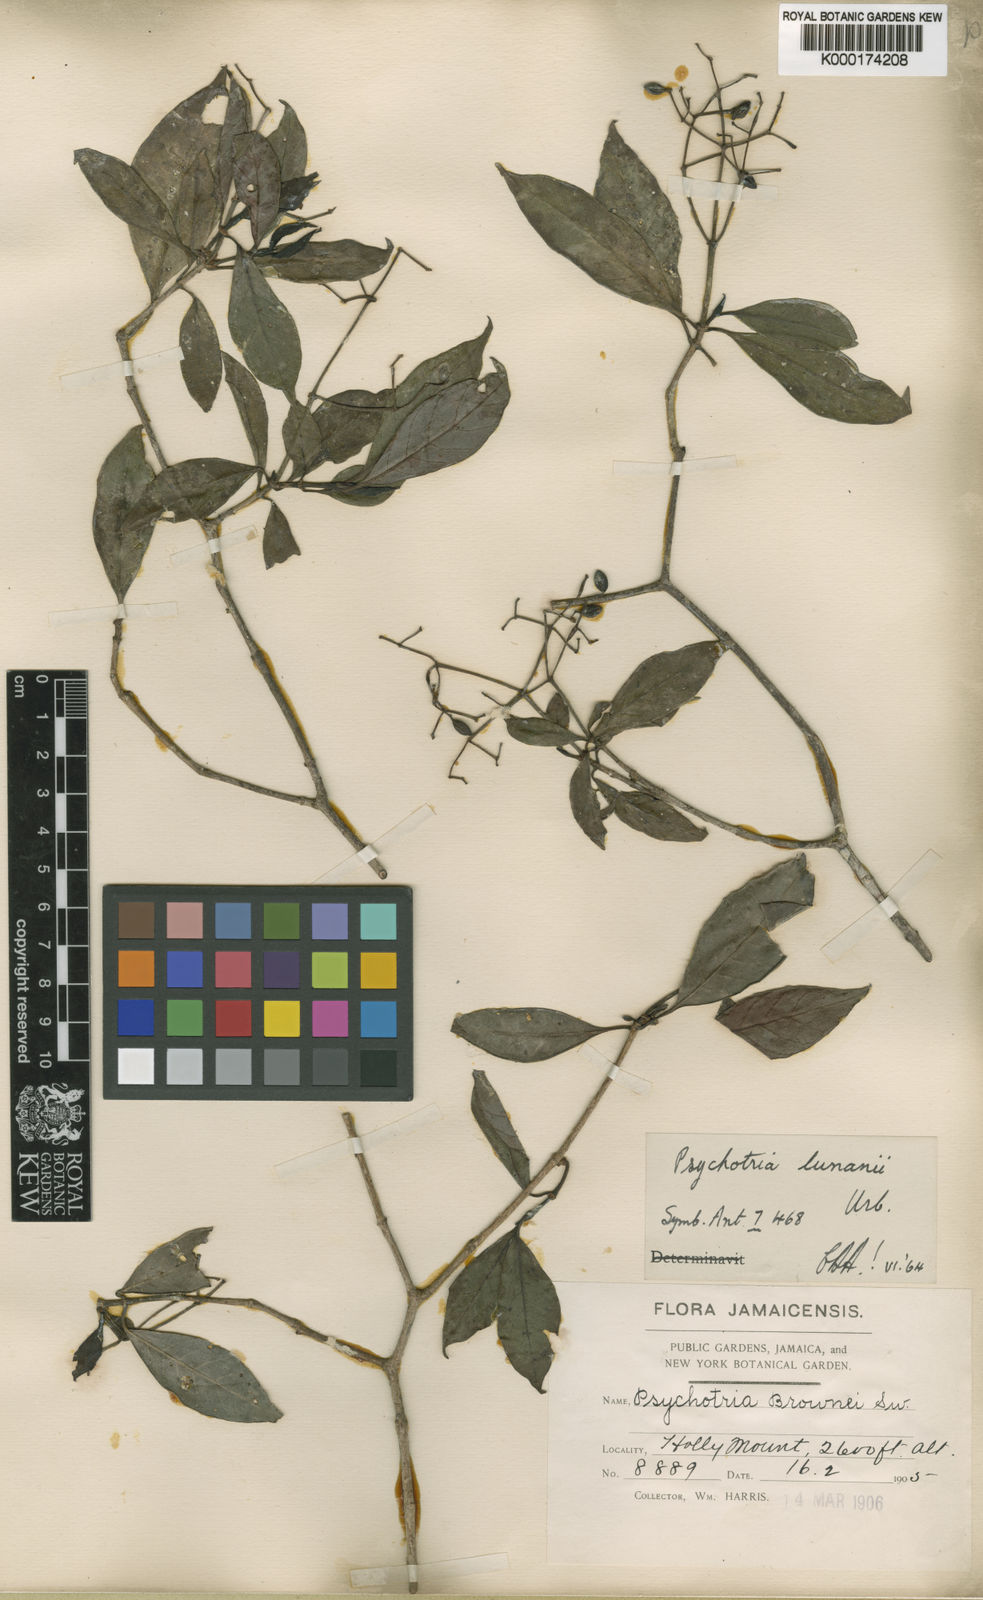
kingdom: Plantae
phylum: Tracheophyta
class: Magnoliopsida
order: Gentianales
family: Rubiaceae
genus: Psychotria
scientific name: Psychotria lunanii
